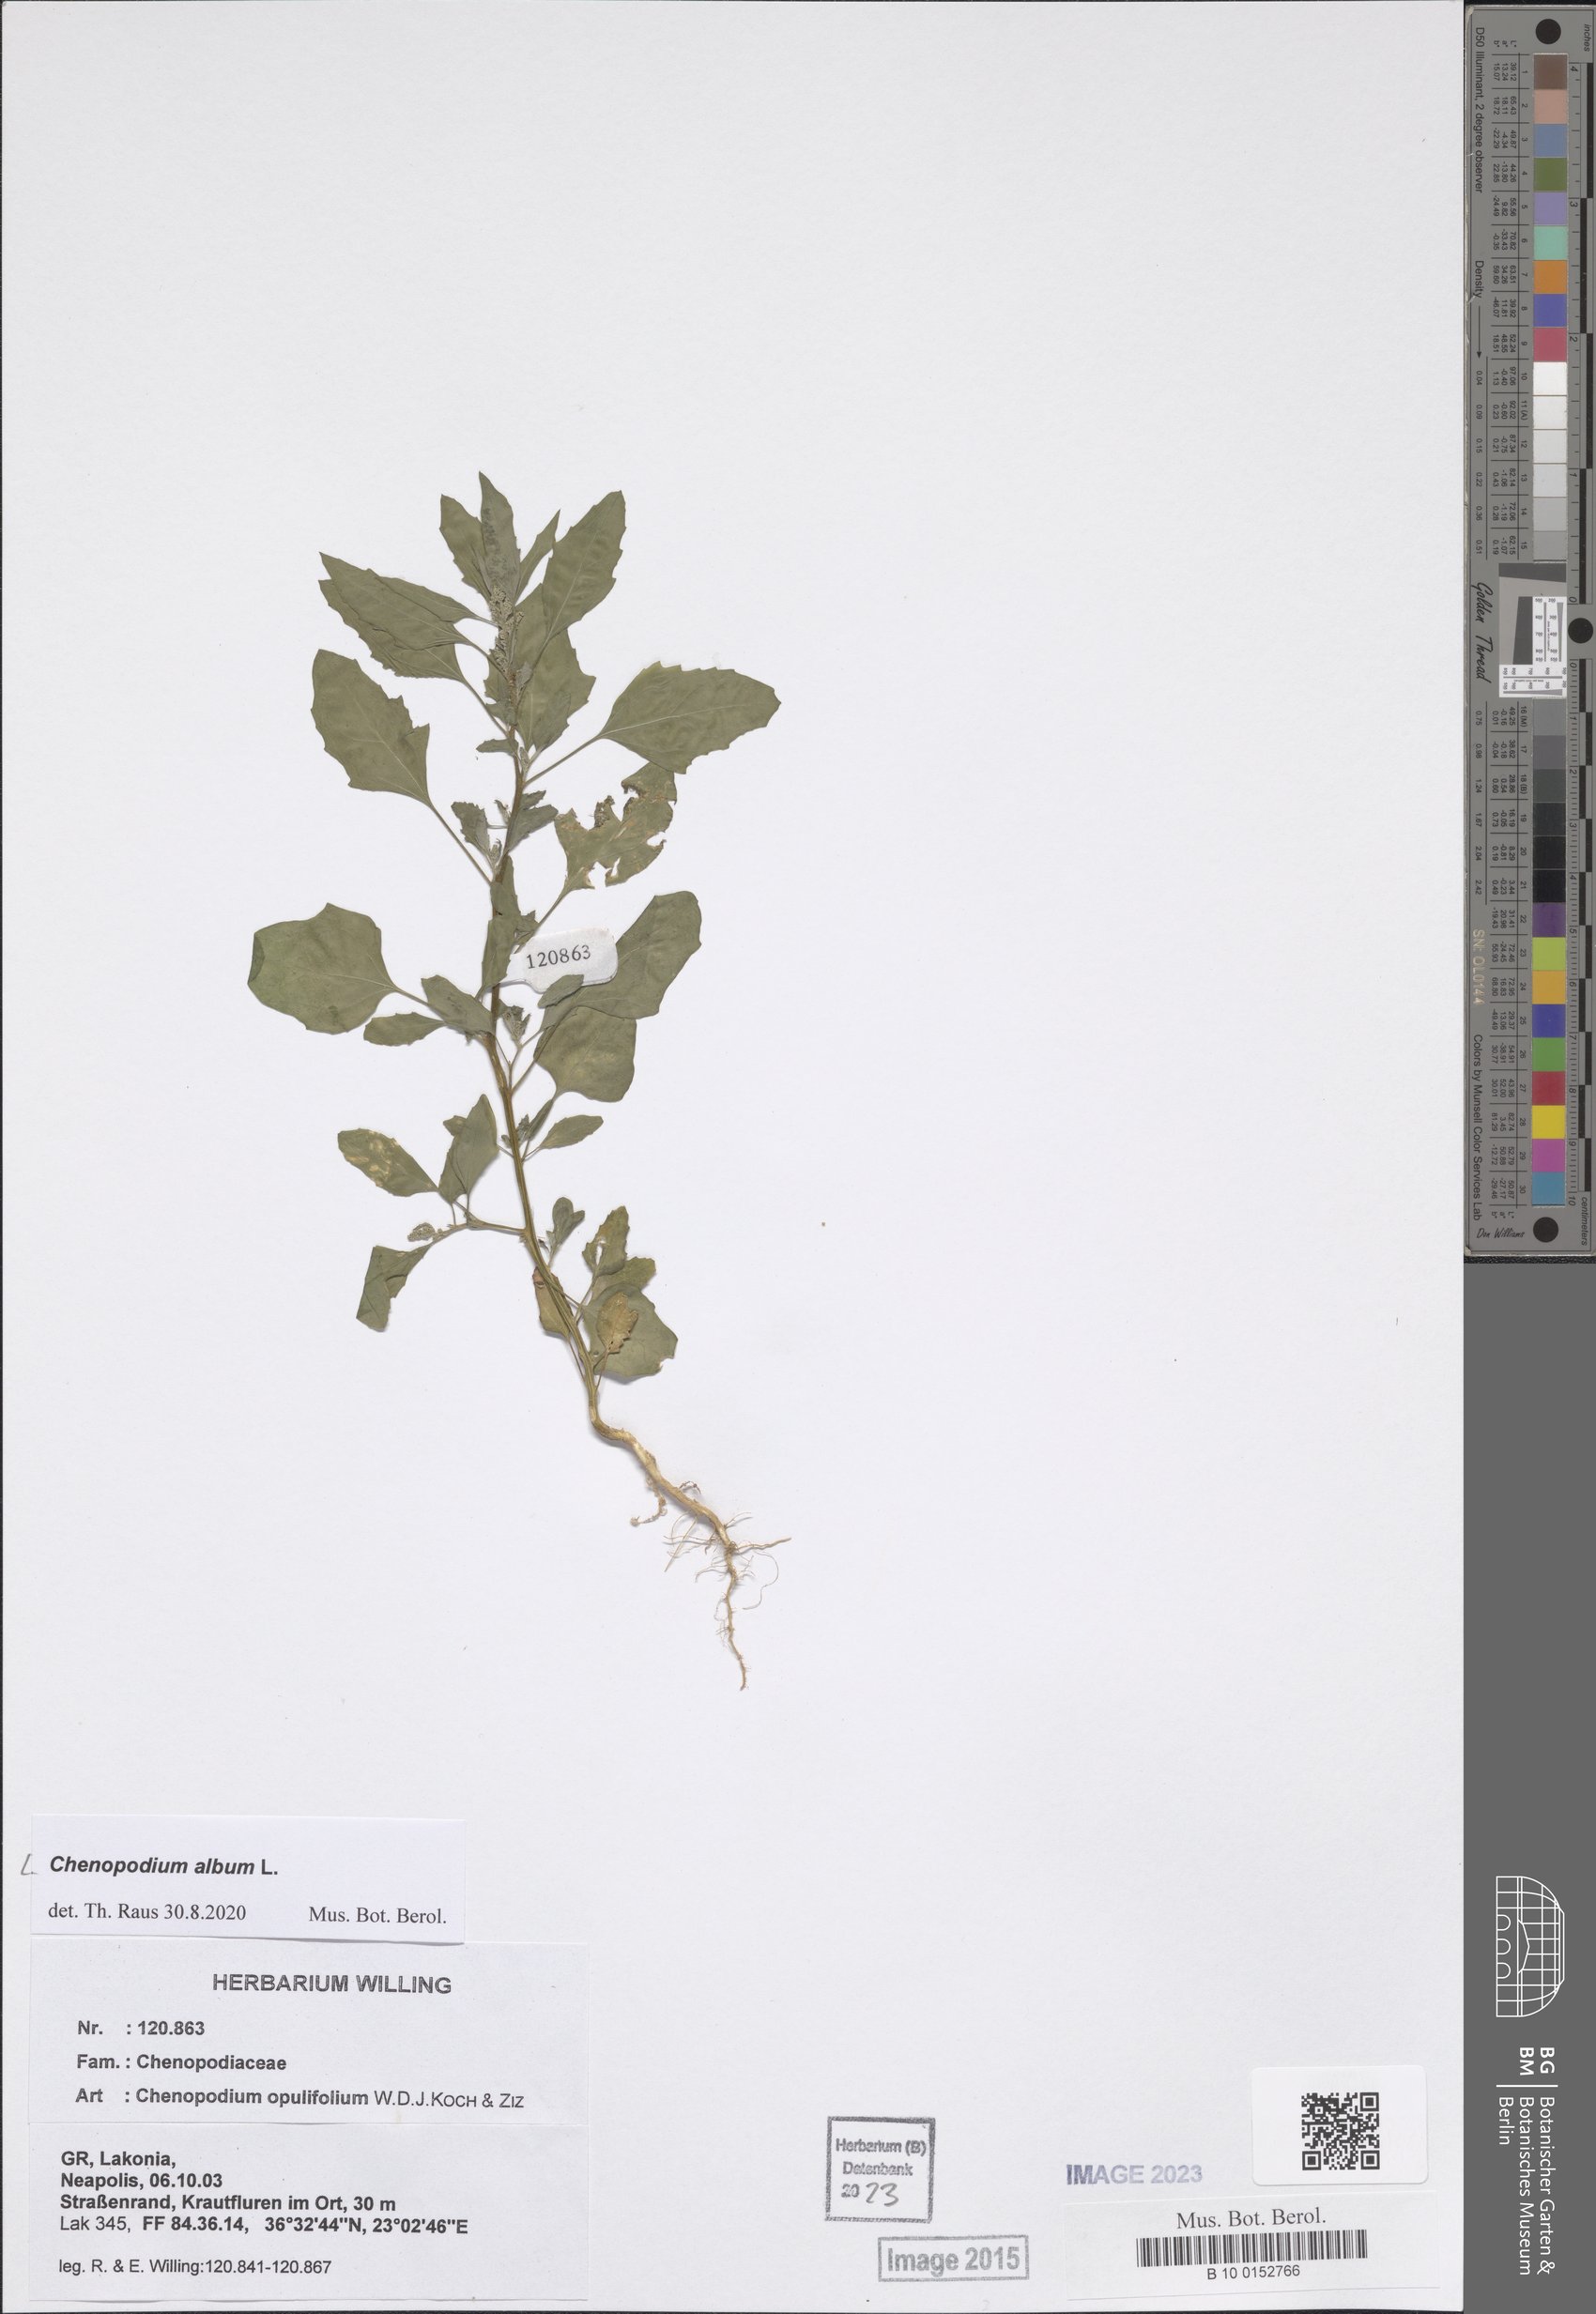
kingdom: Plantae
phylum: Tracheophyta
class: Magnoliopsida
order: Caryophyllales
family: Amaranthaceae
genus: Chenopodium
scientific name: Chenopodium album
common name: Fat-hen
